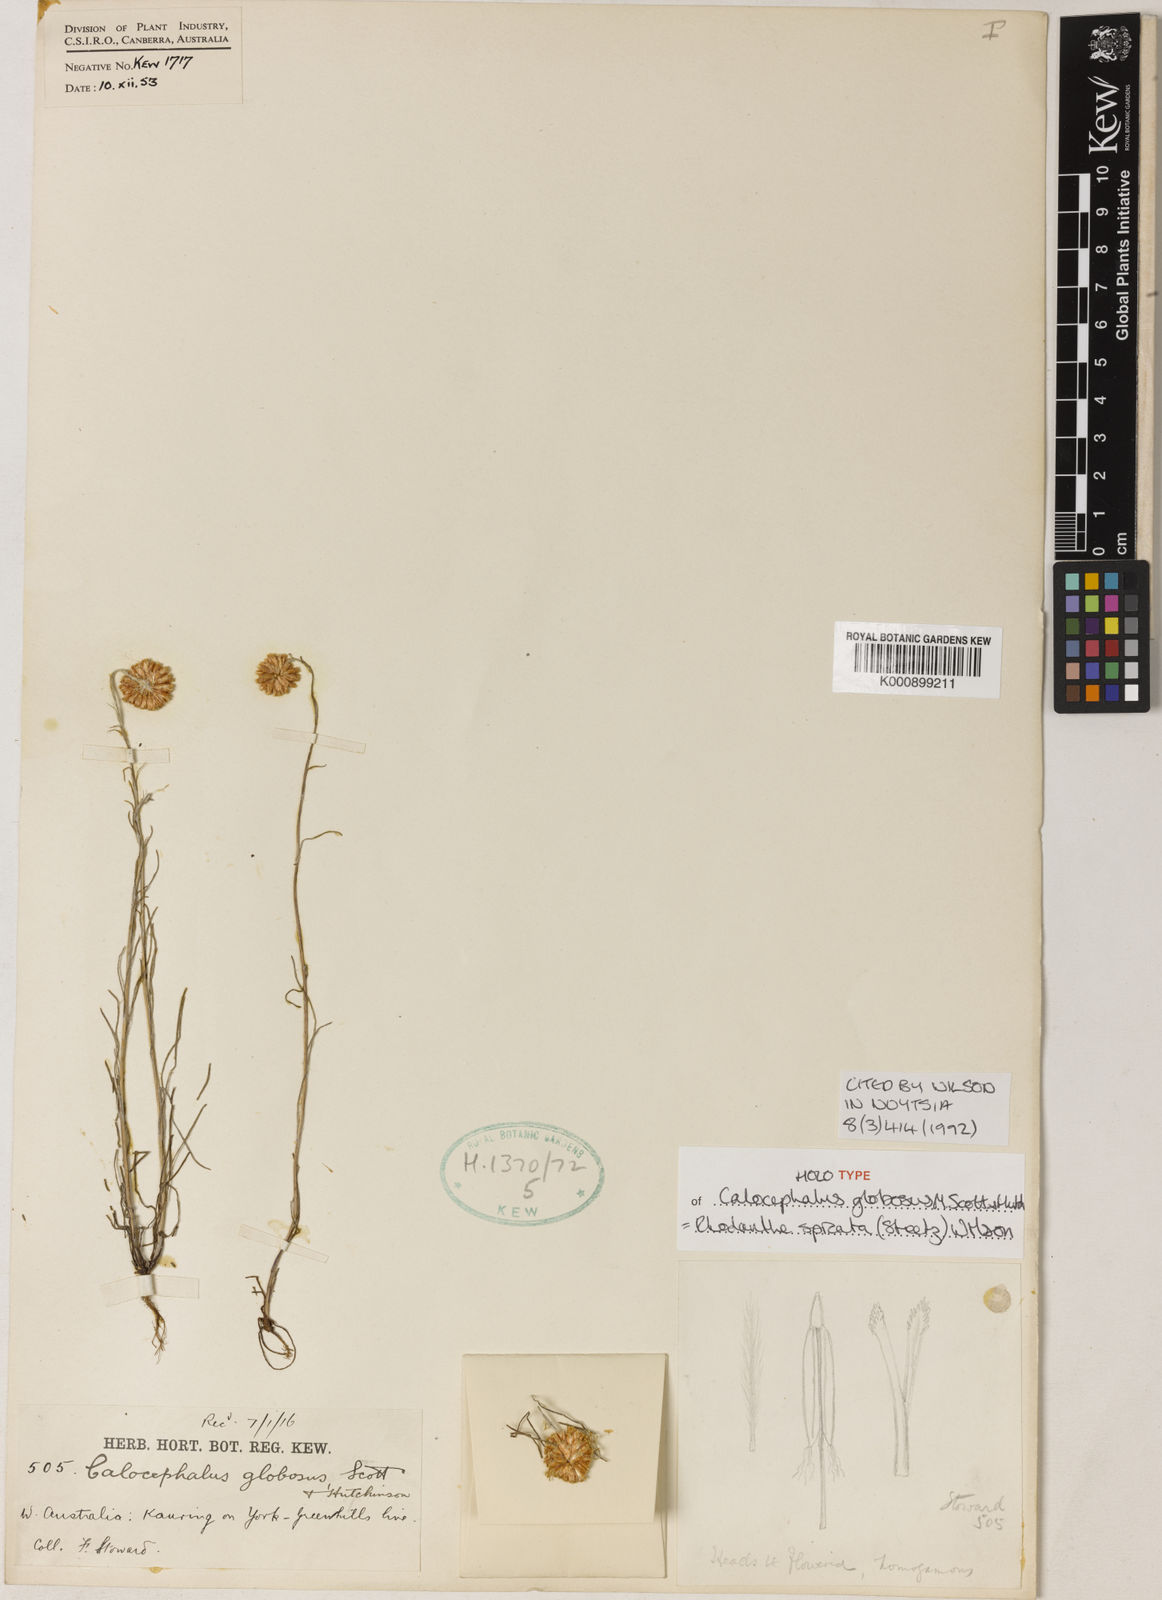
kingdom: Plantae
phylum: Tracheophyta
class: Magnoliopsida
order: Asterales
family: Asteraceae
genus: Rhodanthe
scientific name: Rhodanthe spicata
